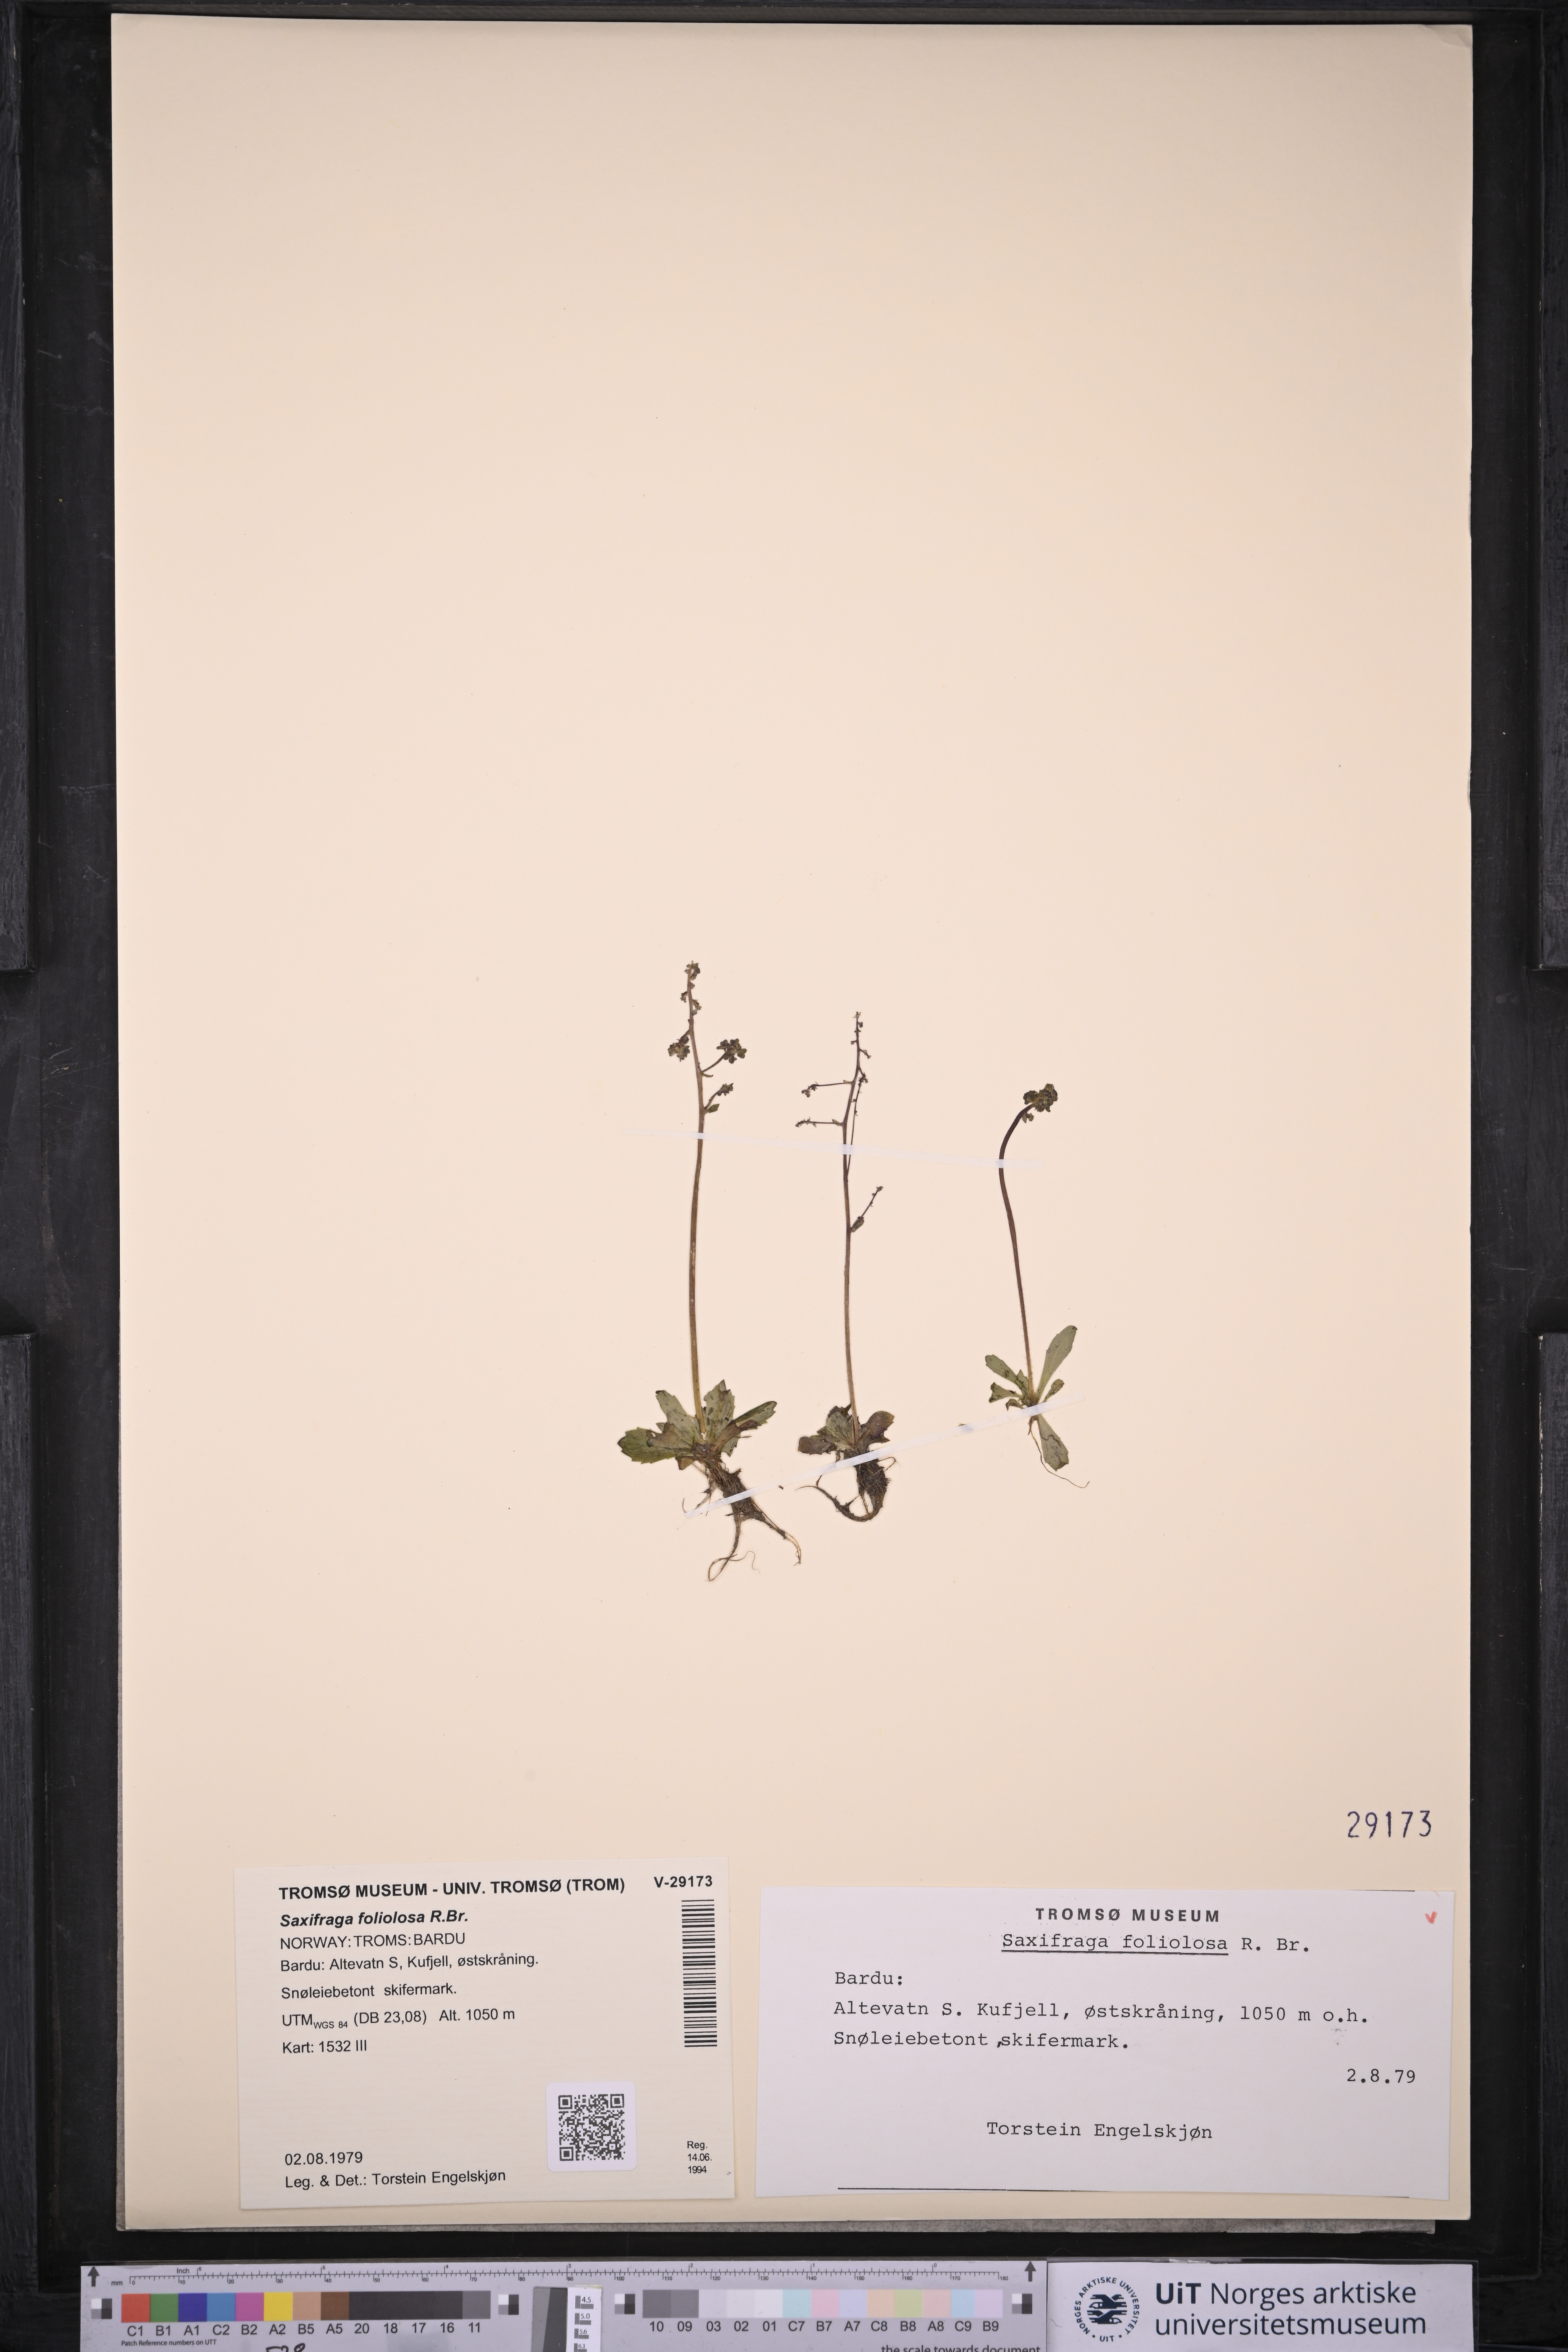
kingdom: Plantae
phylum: Tracheophyta
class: Magnoliopsida
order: Saxifragales
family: Saxifragaceae
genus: Micranthes
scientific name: Micranthes foliolosa
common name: Leafystem saxifrage
